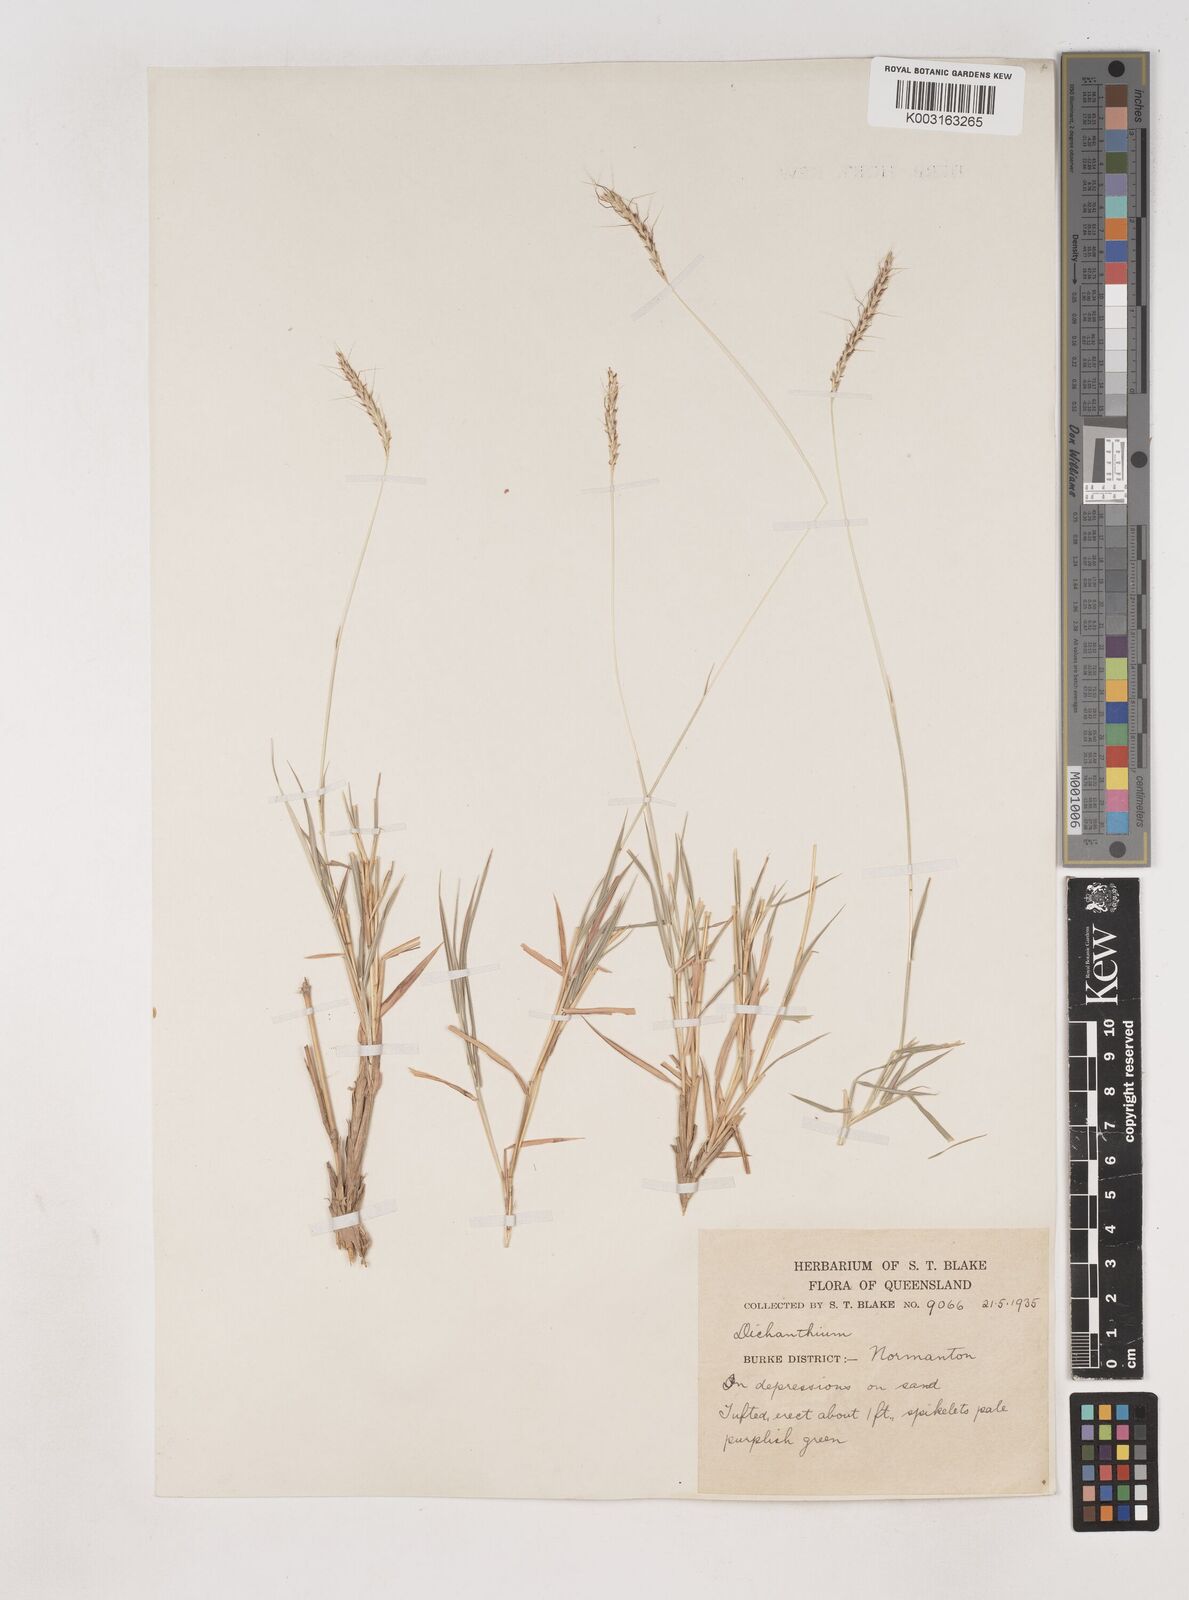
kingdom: Plantae
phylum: Tracheophyta
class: Liliopsida
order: Poales
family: Poaceae
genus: Dichanthium
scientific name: Dichanthium fecundum
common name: Bundle-bundle
